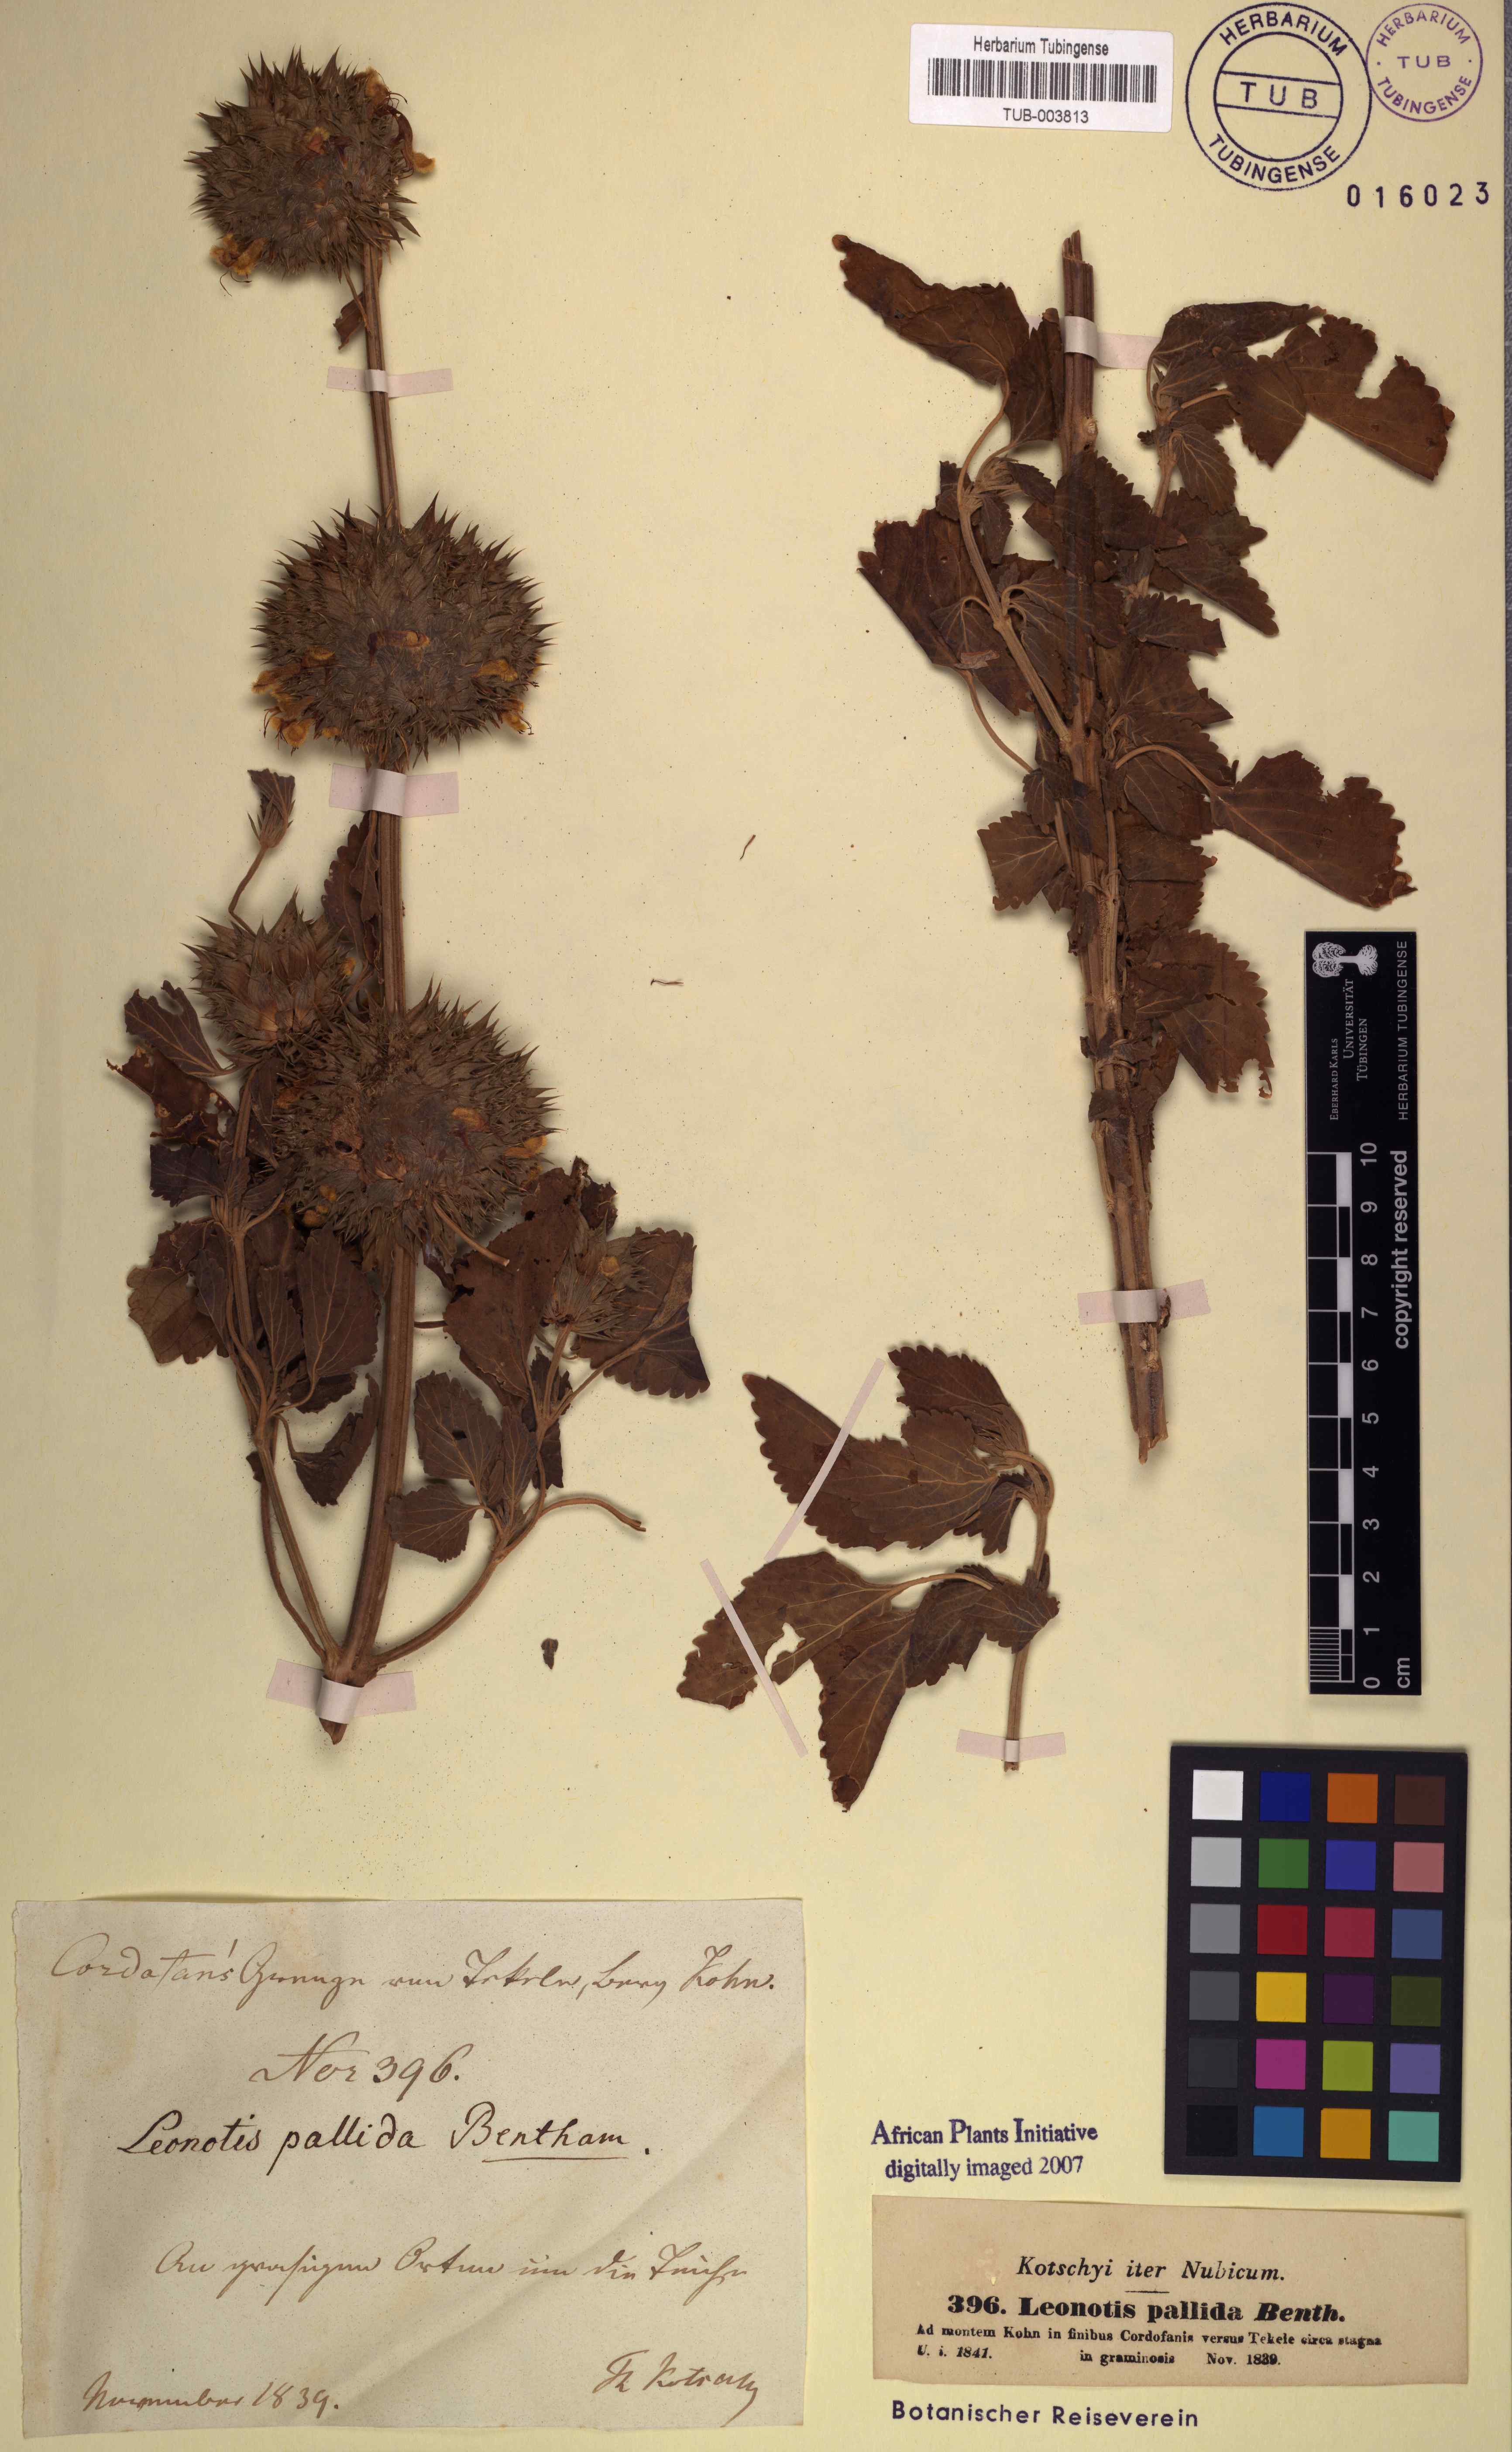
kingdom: Plantae
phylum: Tracheophyta
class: Magnoliopsida
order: Lamiales
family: Lamiaceae
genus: Leonotis
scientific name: Leonotis nepetifolia
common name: Christmas candlestick
